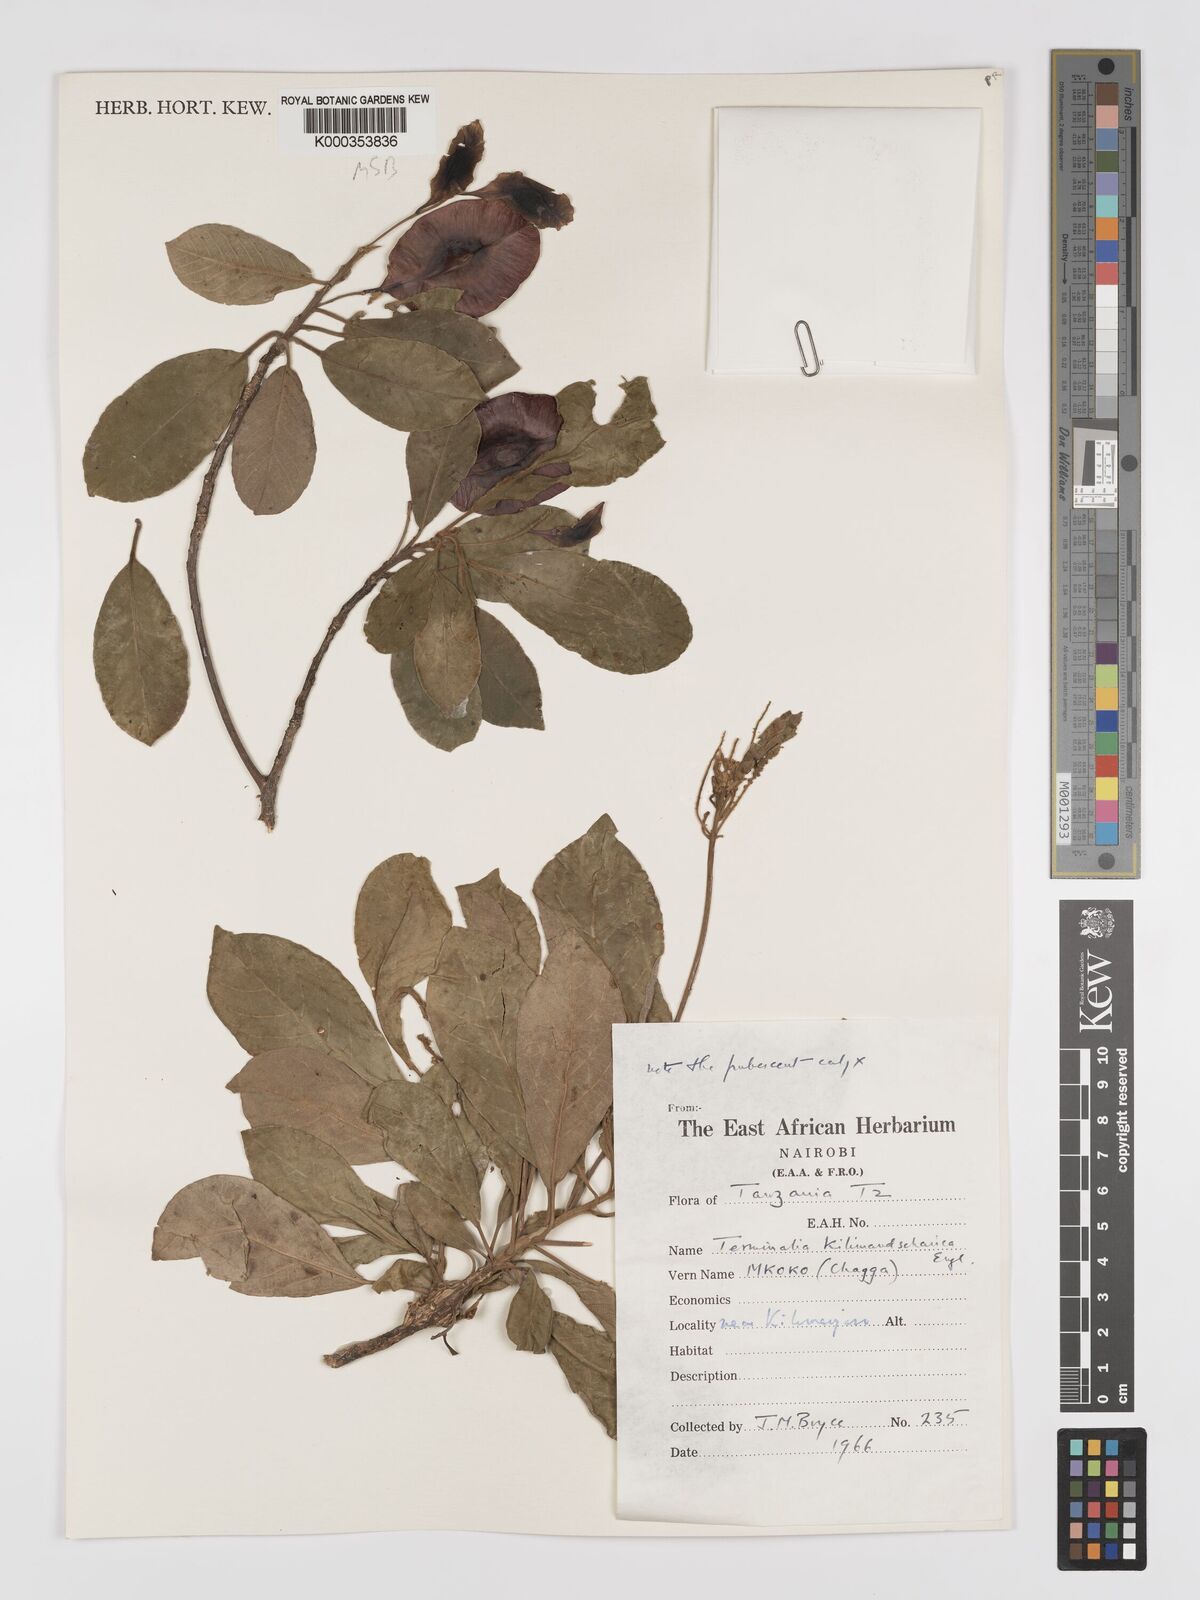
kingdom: Plantae
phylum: Tracheophyta
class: Magnoliopsida
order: Myrtales
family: Combretaceae
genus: Terminalia
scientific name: Terminalia kilimandscharica
